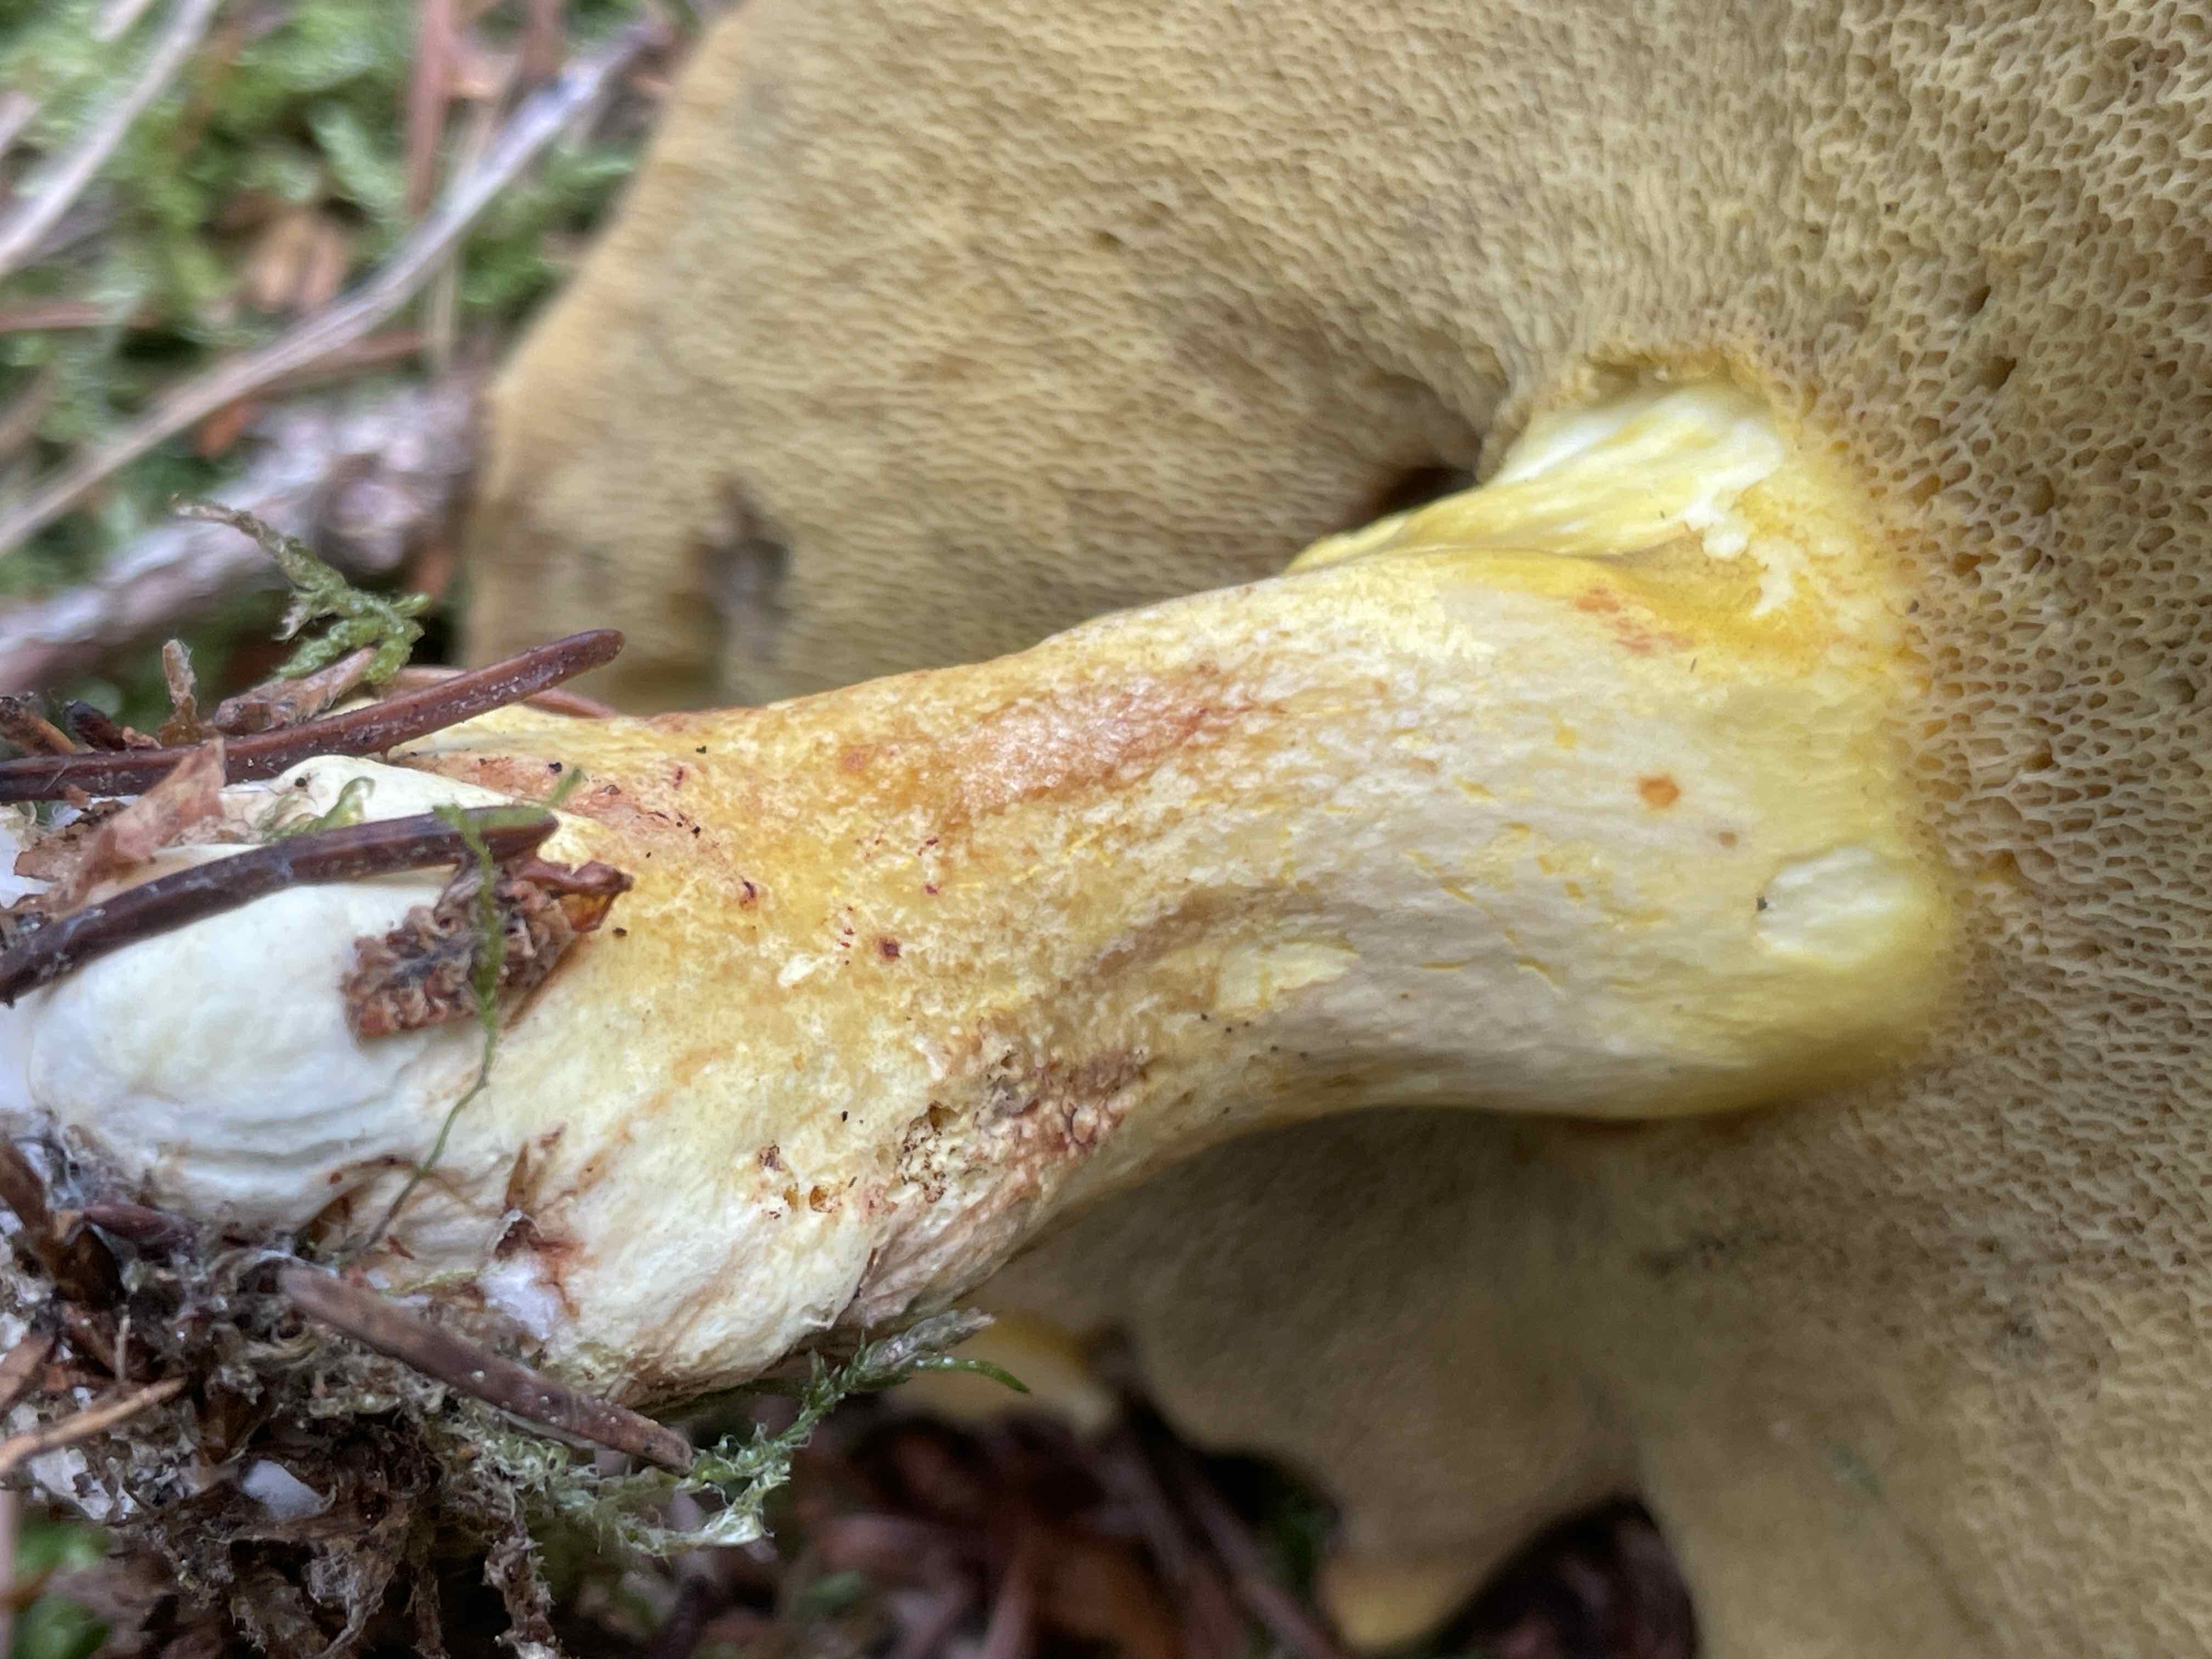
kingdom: Fungi
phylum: Basidiomycota
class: Agaricomycetes
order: Boletales
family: Suillaceae
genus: Suillus
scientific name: Suillus variegatus
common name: broget slimrørhat
